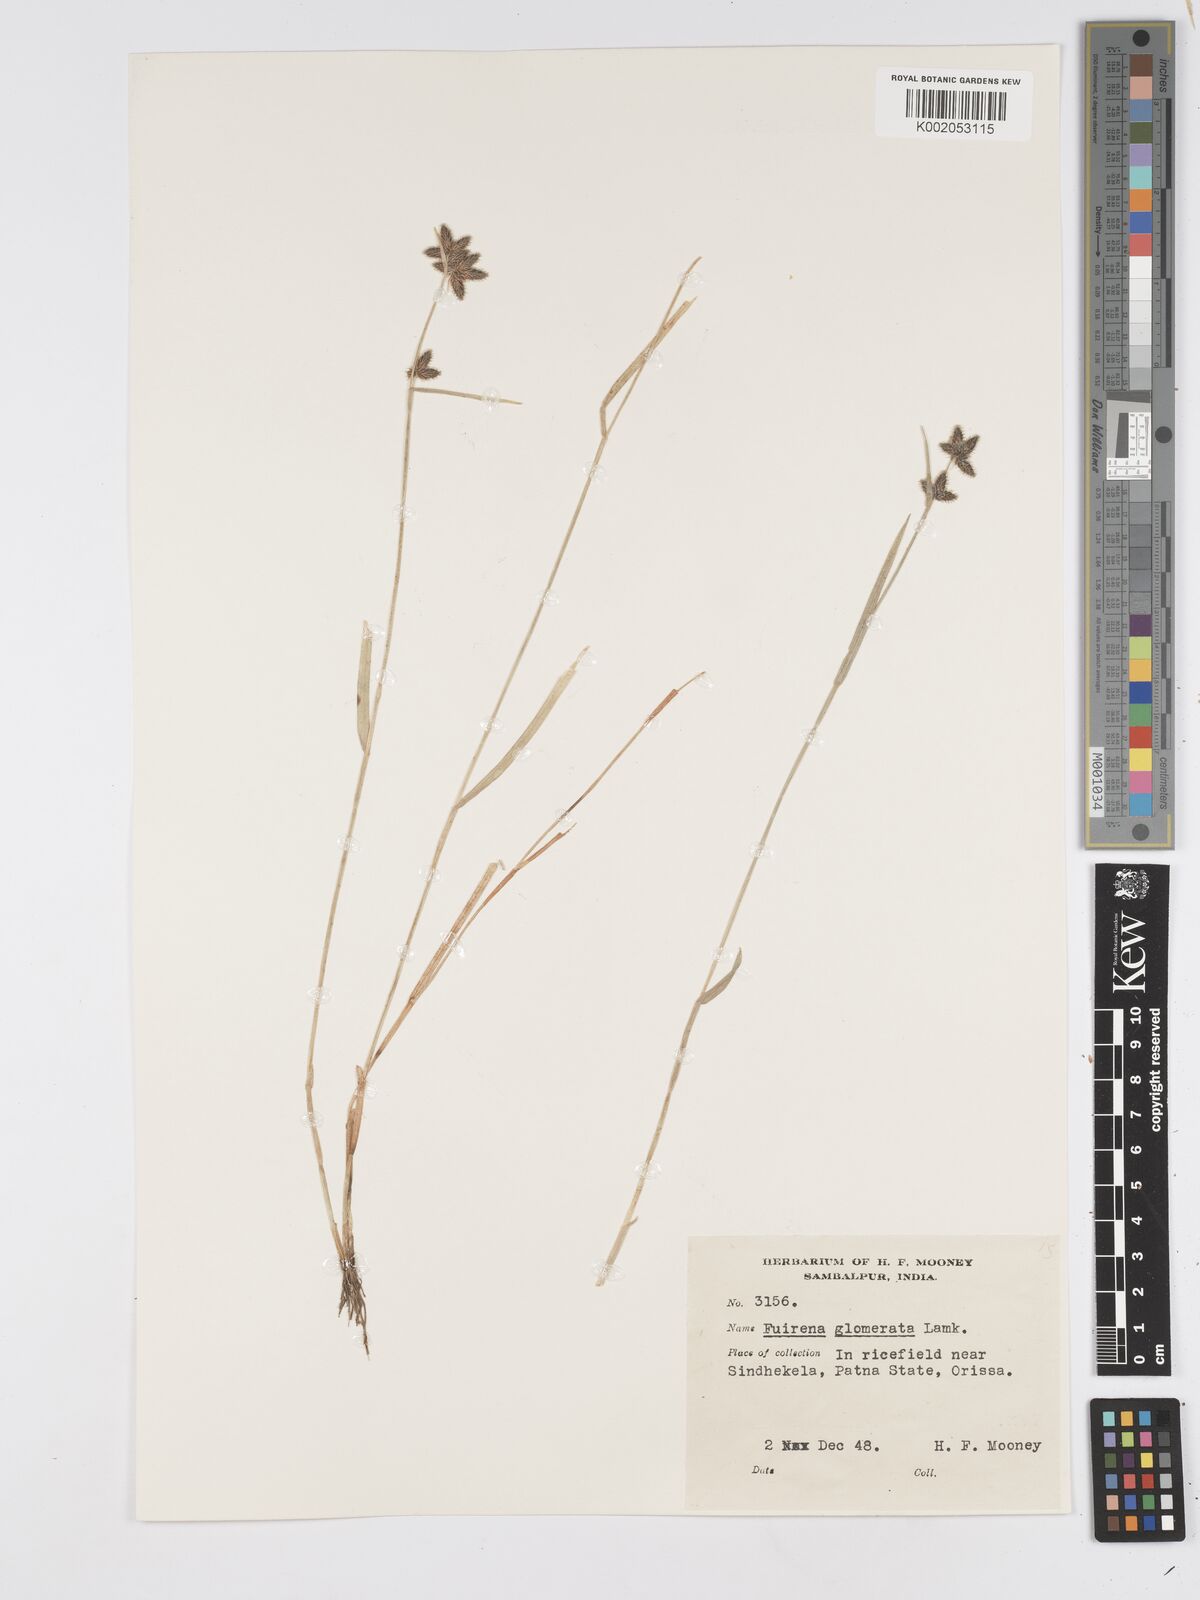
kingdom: Plantae
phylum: Tracheophyta
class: Liliopsida
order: Poales
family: Cyperaceae
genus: Fuirena
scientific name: Fuirena ciliaris
